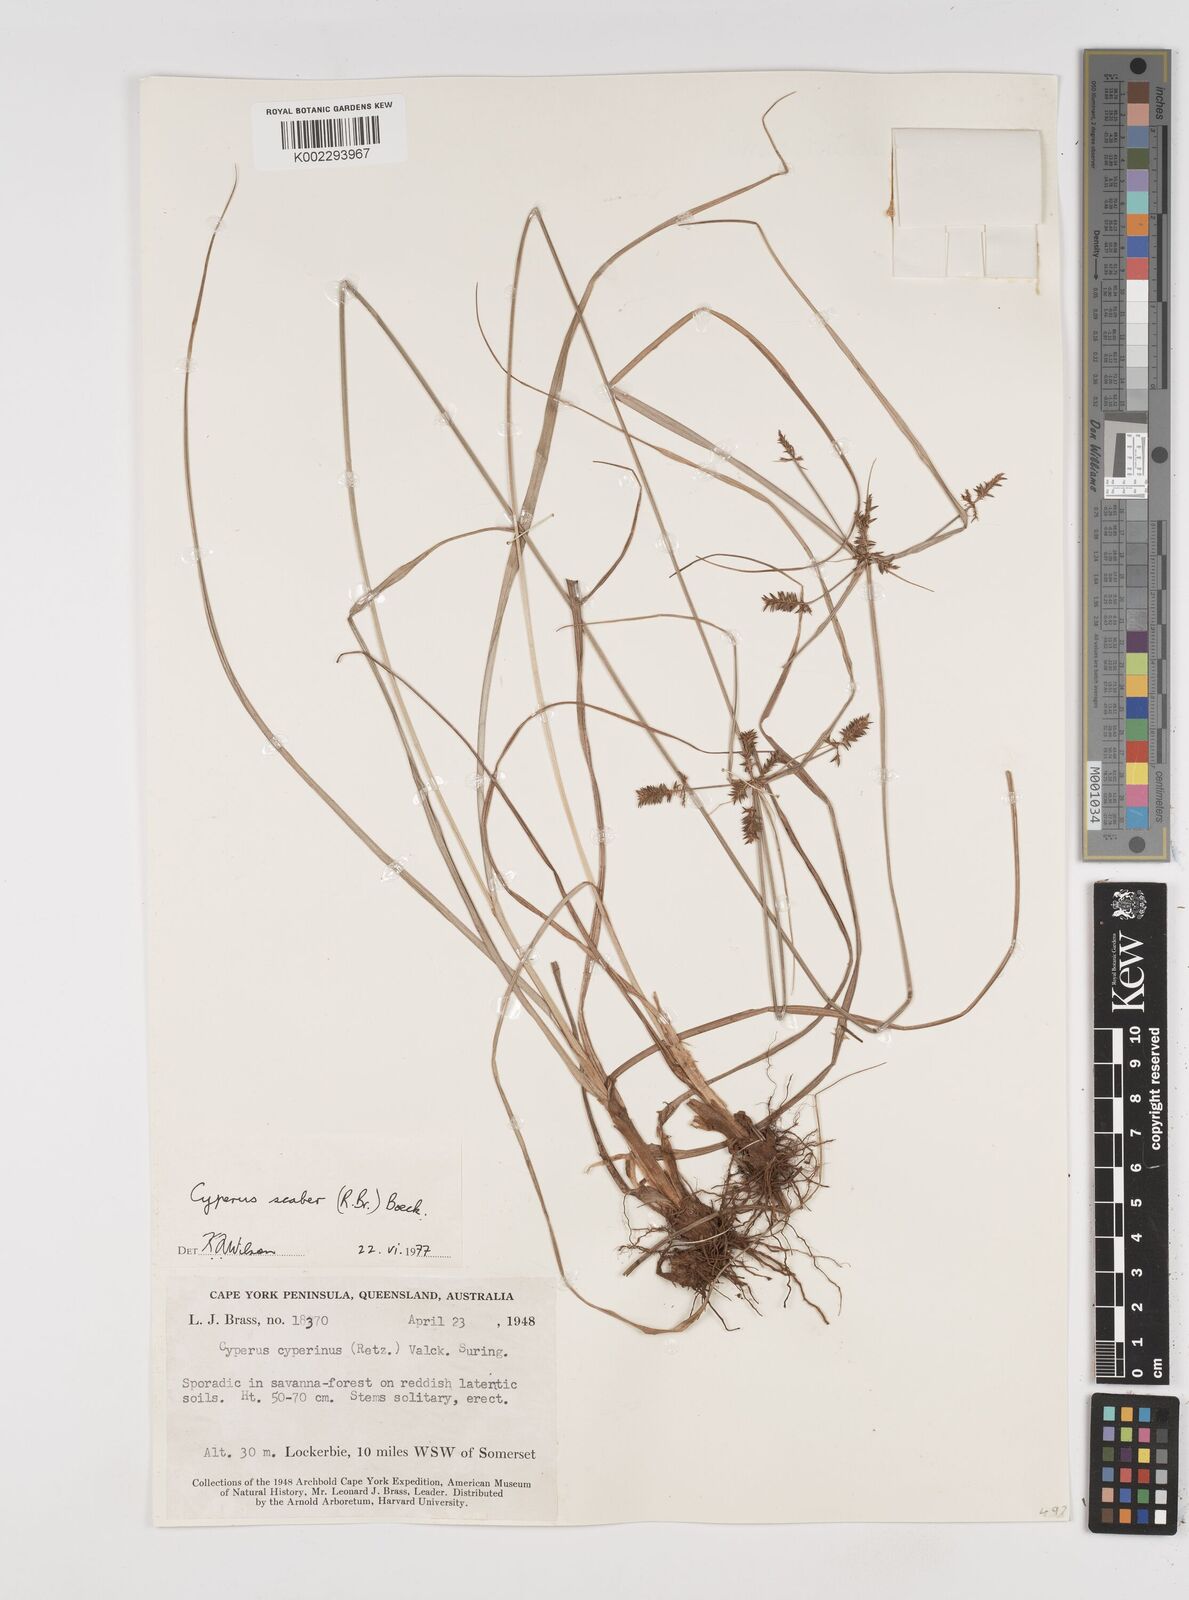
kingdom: Plantae
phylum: Tracheophyta
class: Liliopsida
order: Poales
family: Cyperaceae
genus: Cyperus
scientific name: Cyperus scaber
